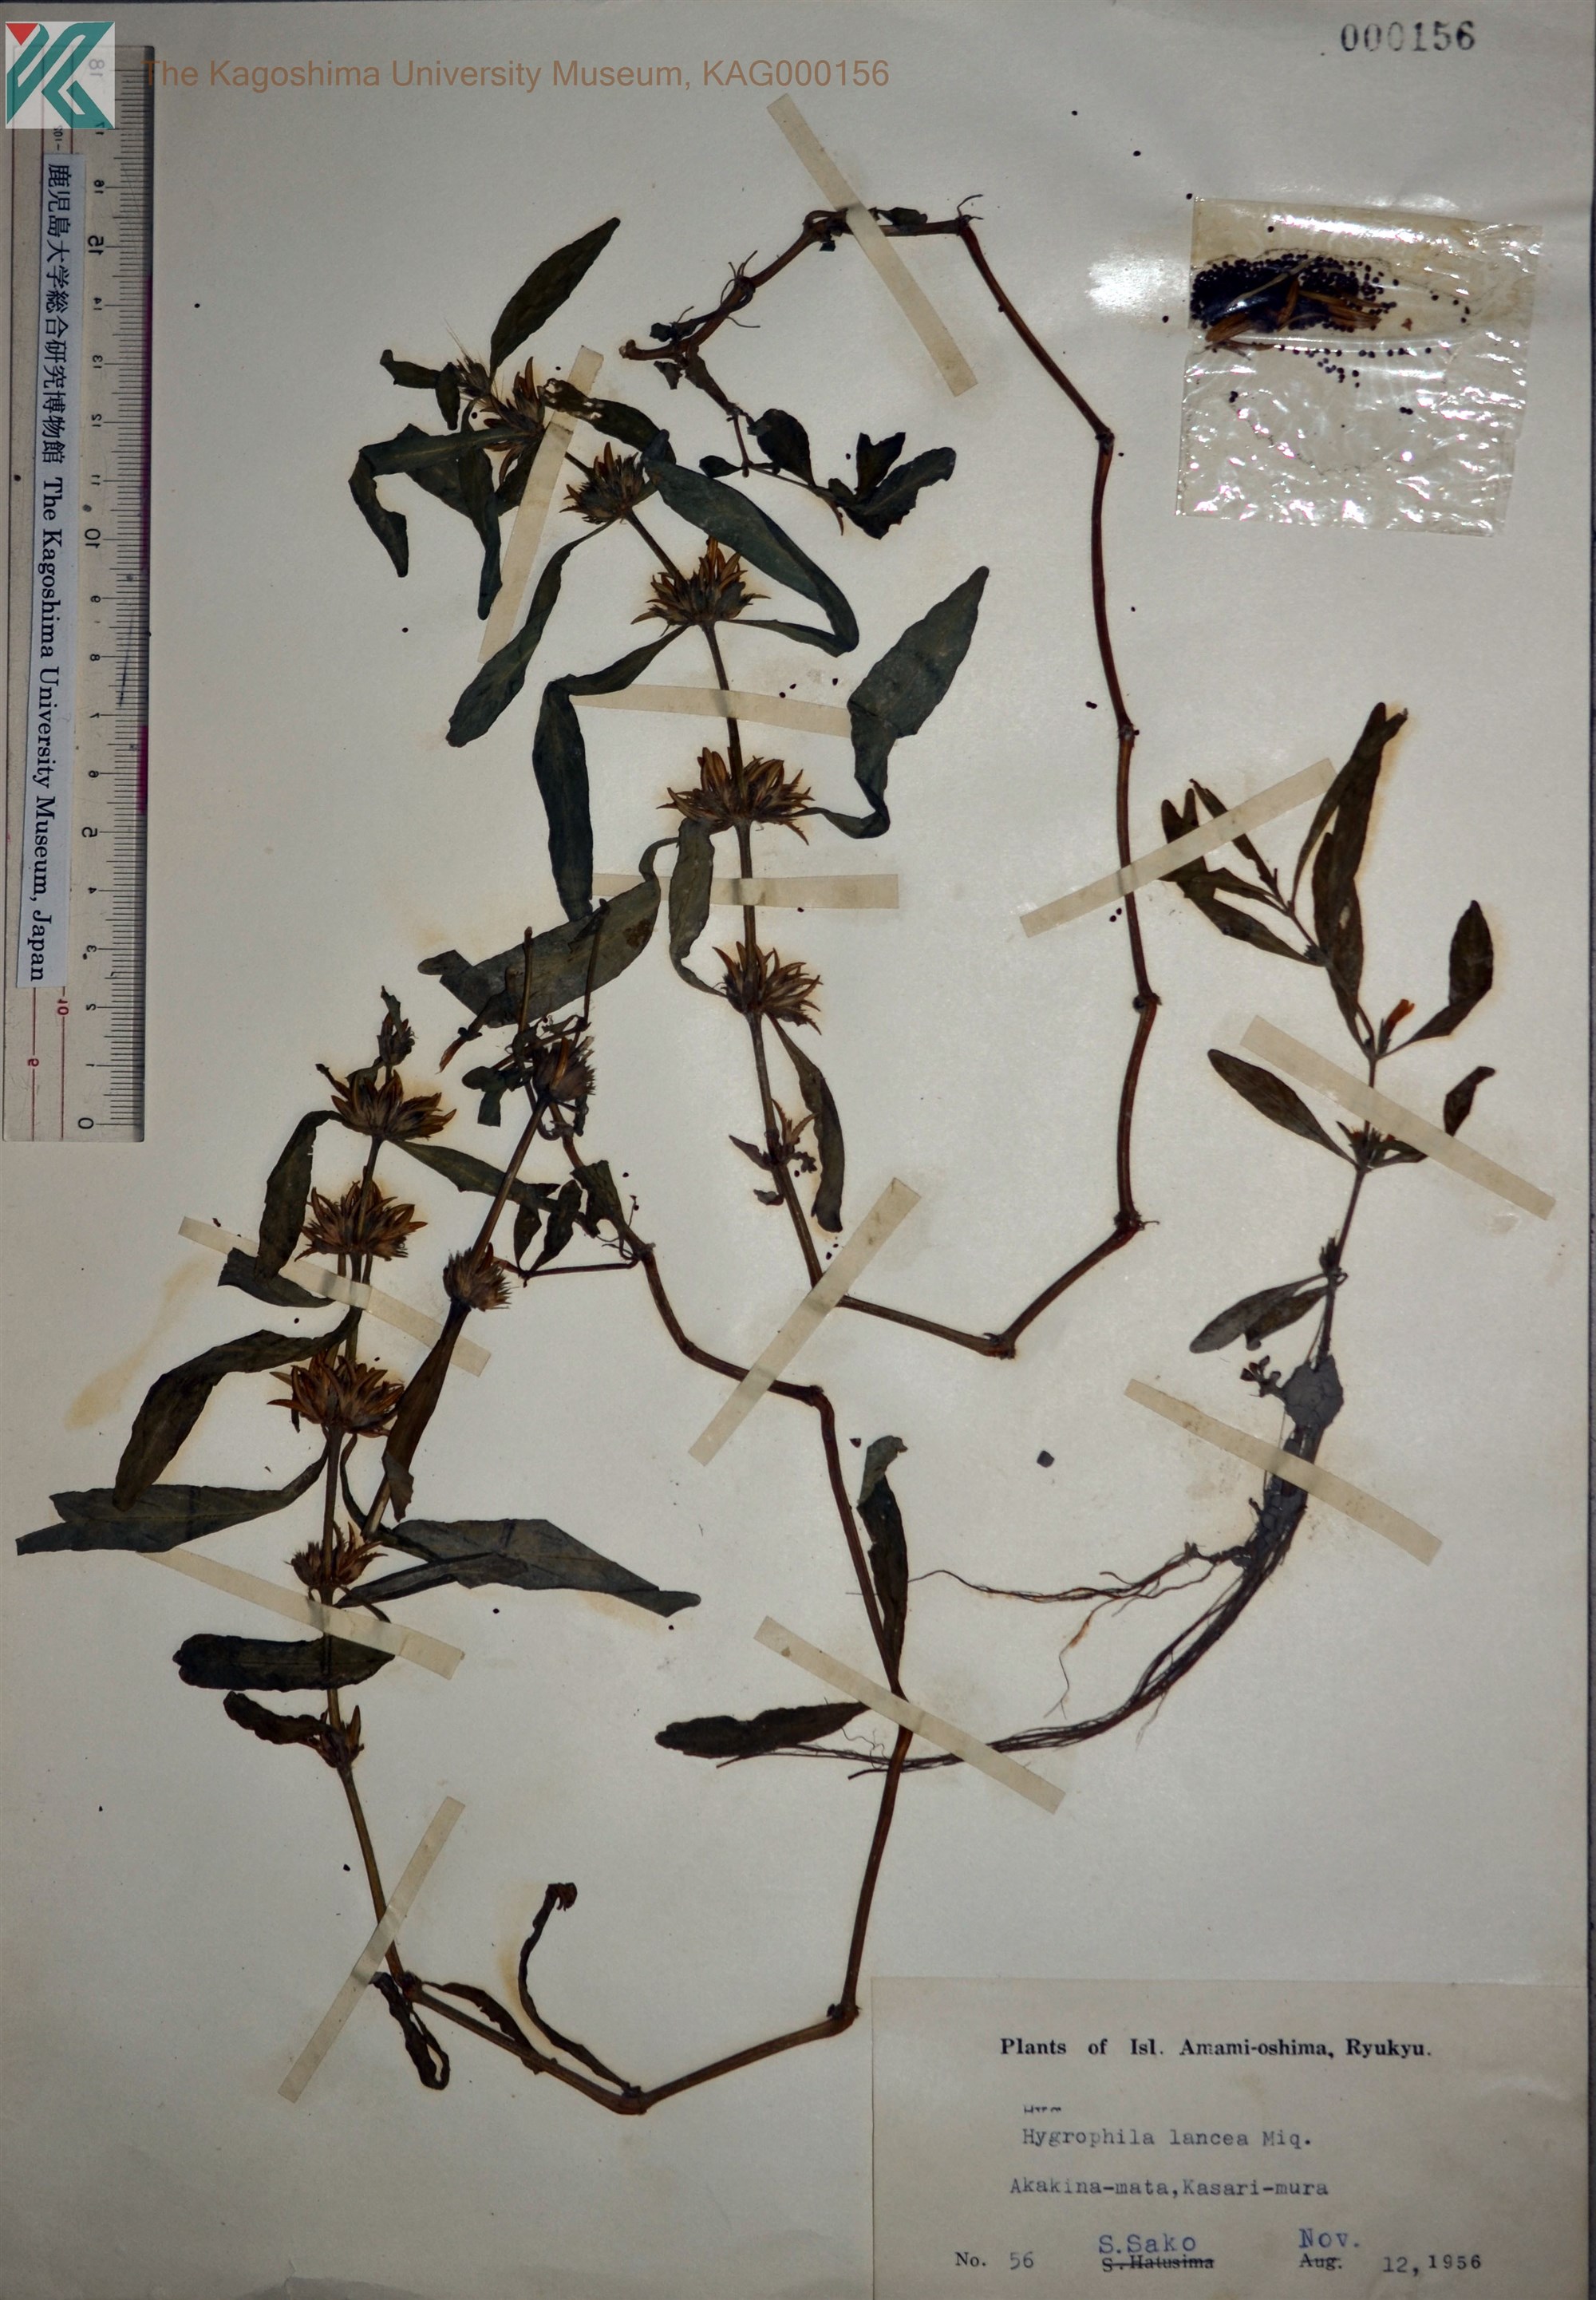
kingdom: Plantae
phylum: Tracheophyta
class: Magnoliopsida
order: Lamiales
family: Acanthaceae
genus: Hygrophila
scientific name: Hygrophila ringens
